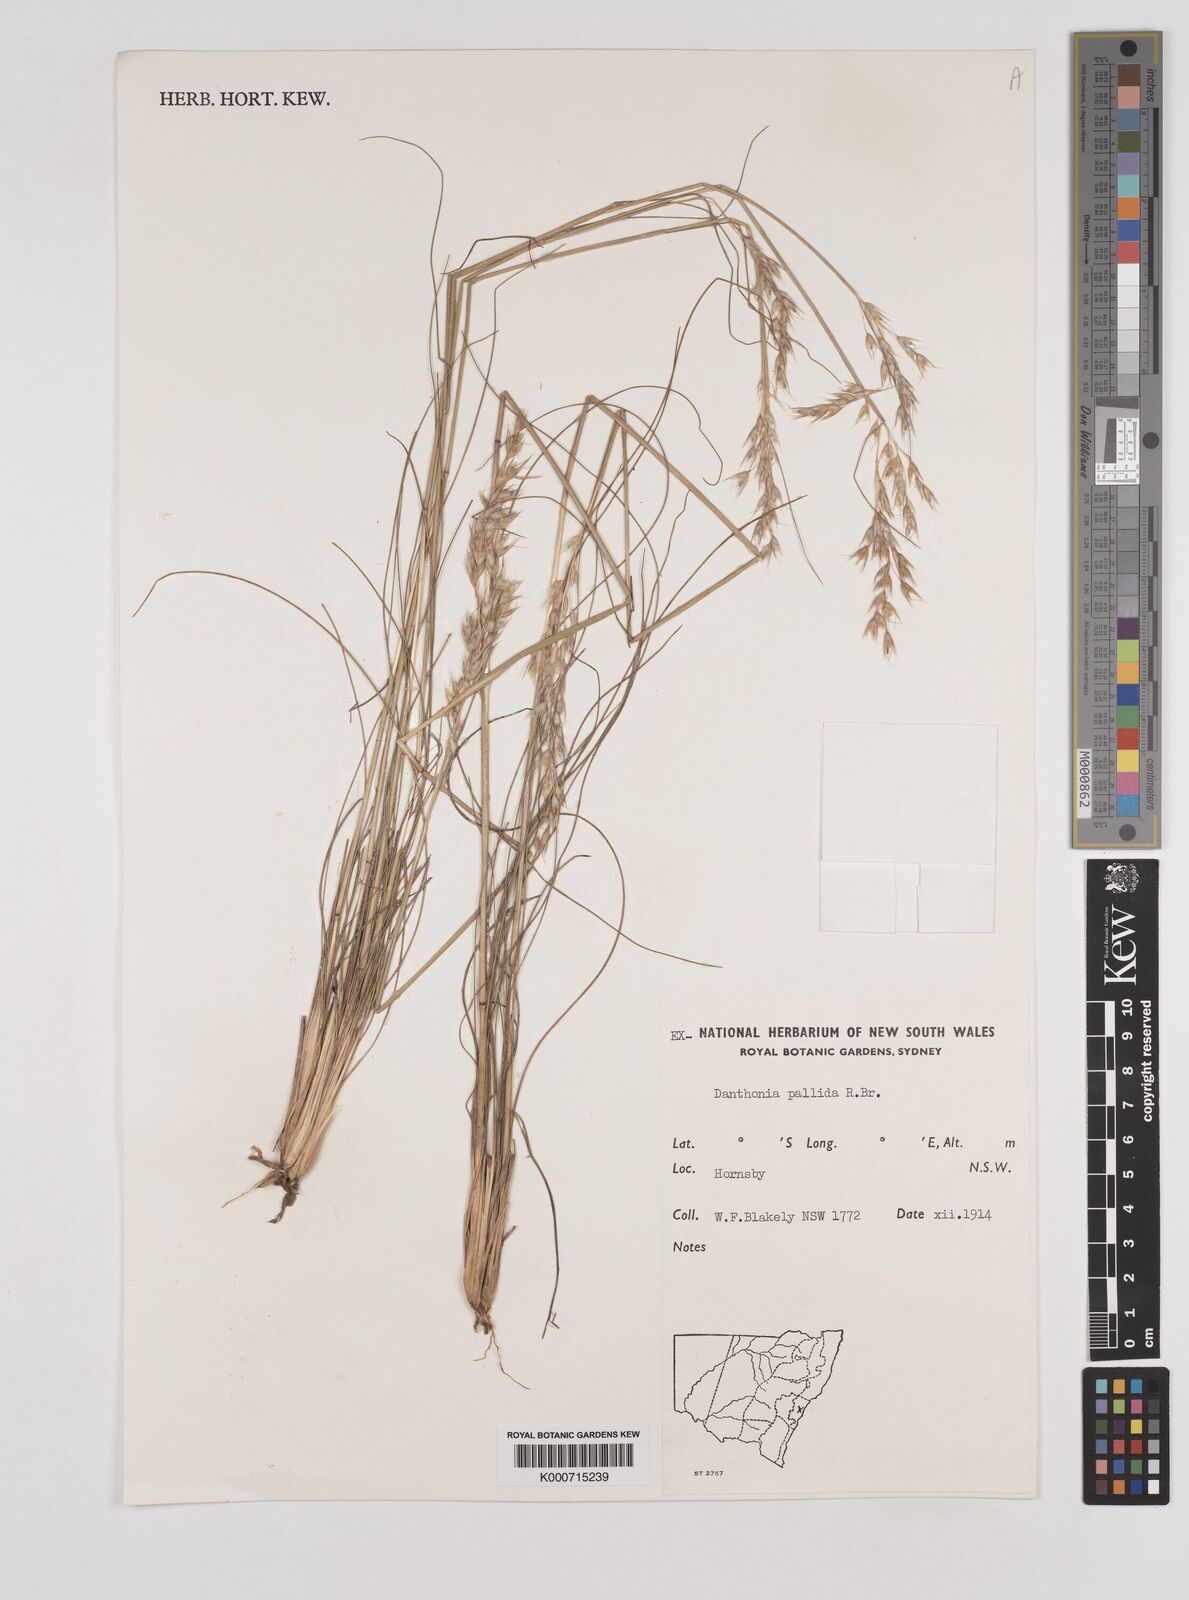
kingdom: Plantae
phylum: Tracheophyta
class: Liliopsida
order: Poales
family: Poaceae
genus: Rytidosperma
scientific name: Rytidosperma
